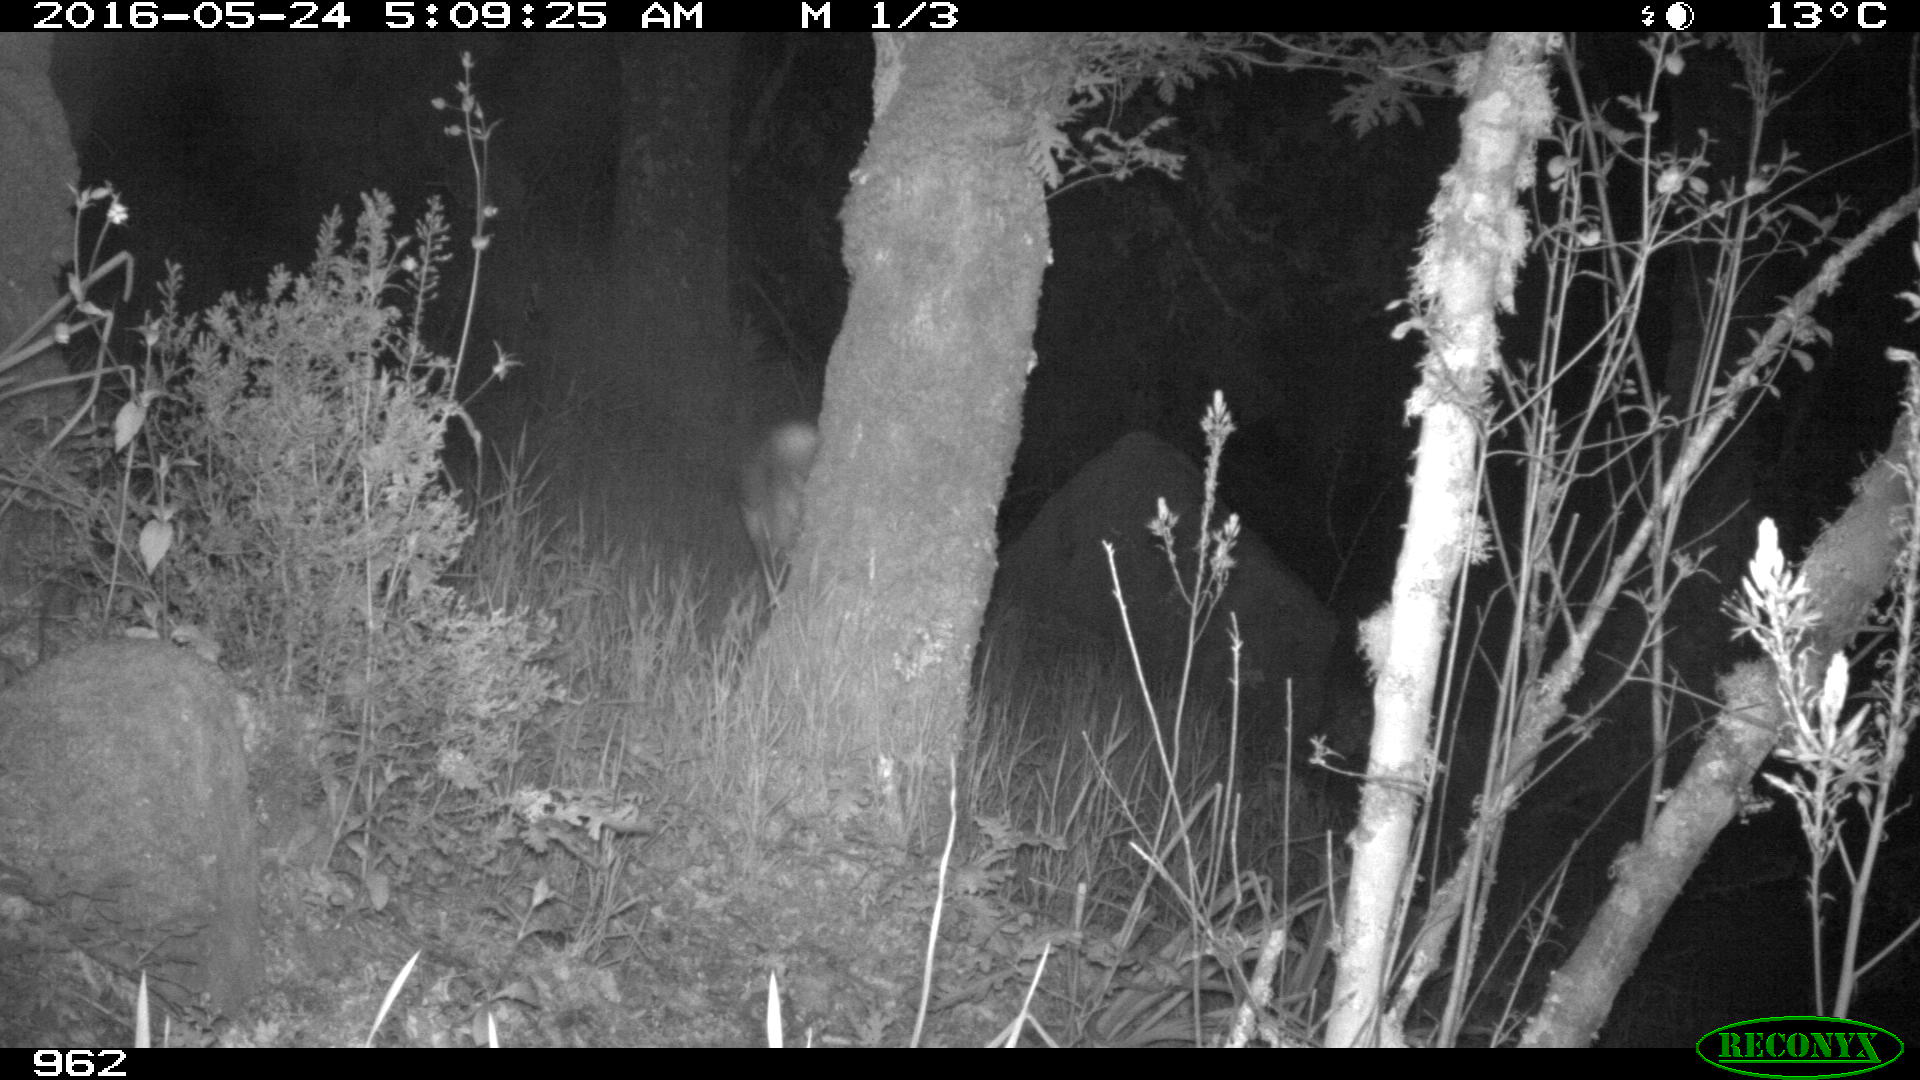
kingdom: Animalia
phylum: Chordata
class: Mammalia
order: Artiodactyla
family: Cervidae
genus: Capreolus
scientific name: Capreolus capreolus
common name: Western roe deer
